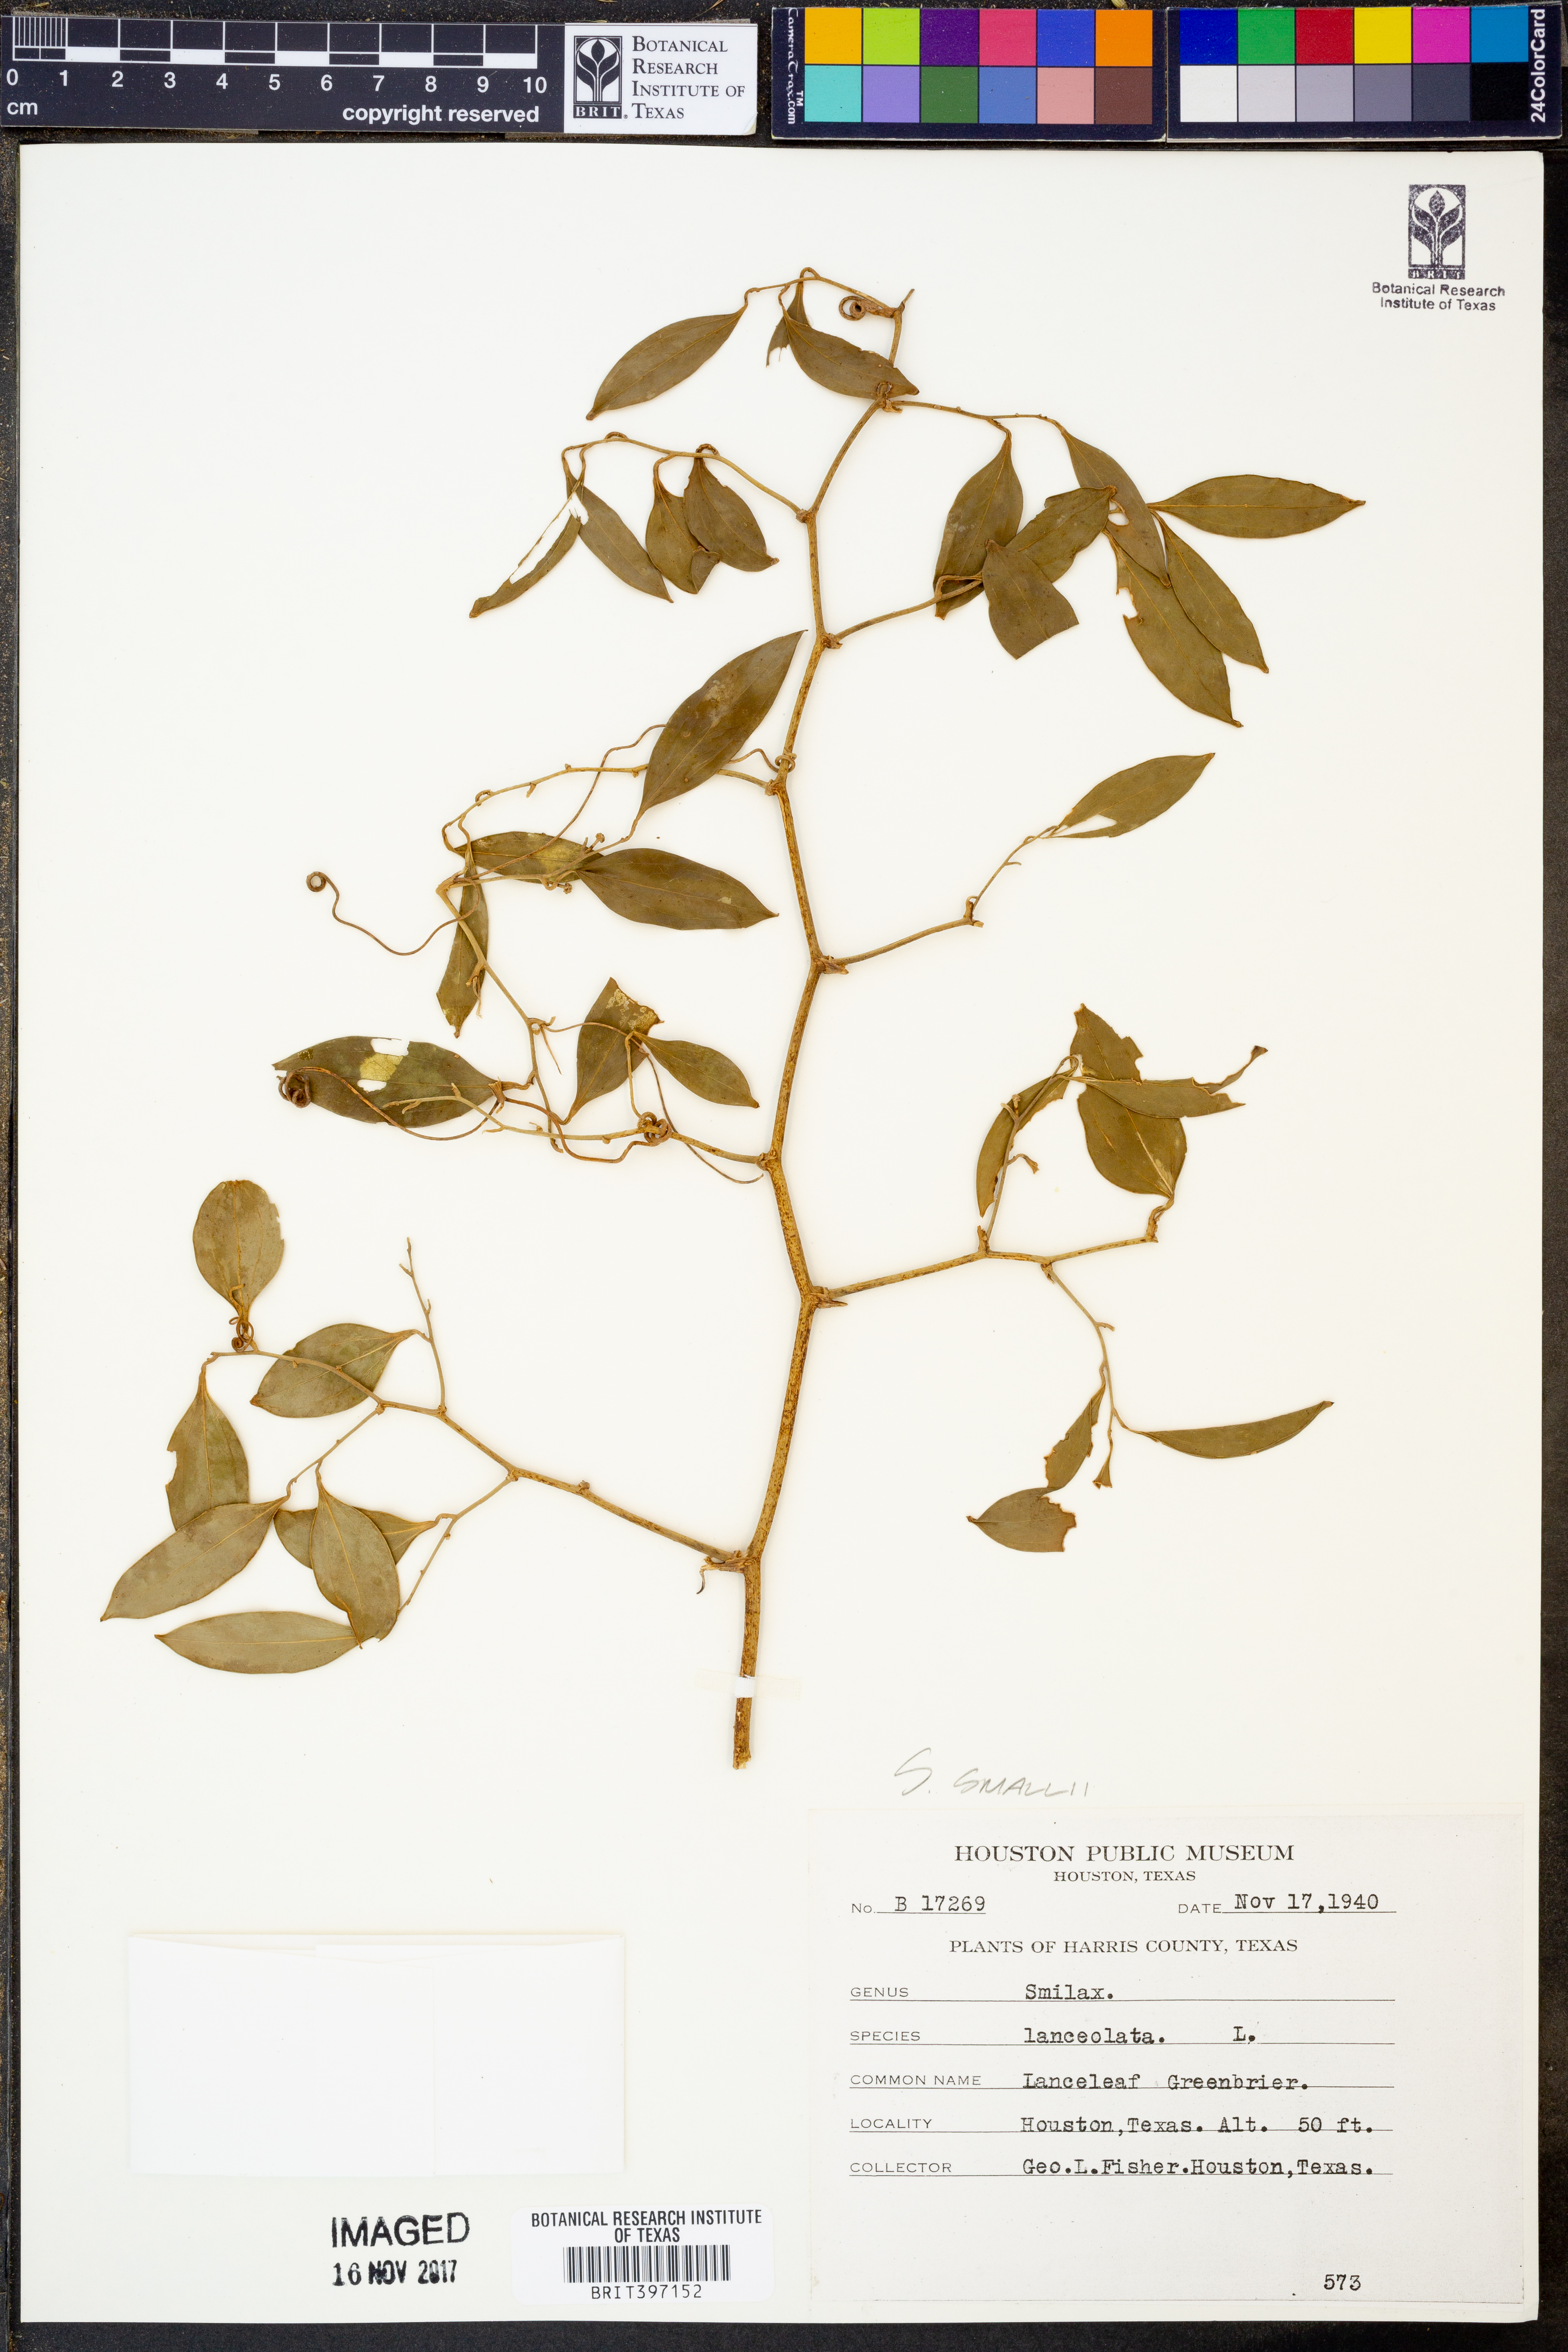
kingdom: Plantae
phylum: Tracheophyta
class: Liliopsida
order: Liliales
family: Smilacaceae
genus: Smilax
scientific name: Smilax maritima
